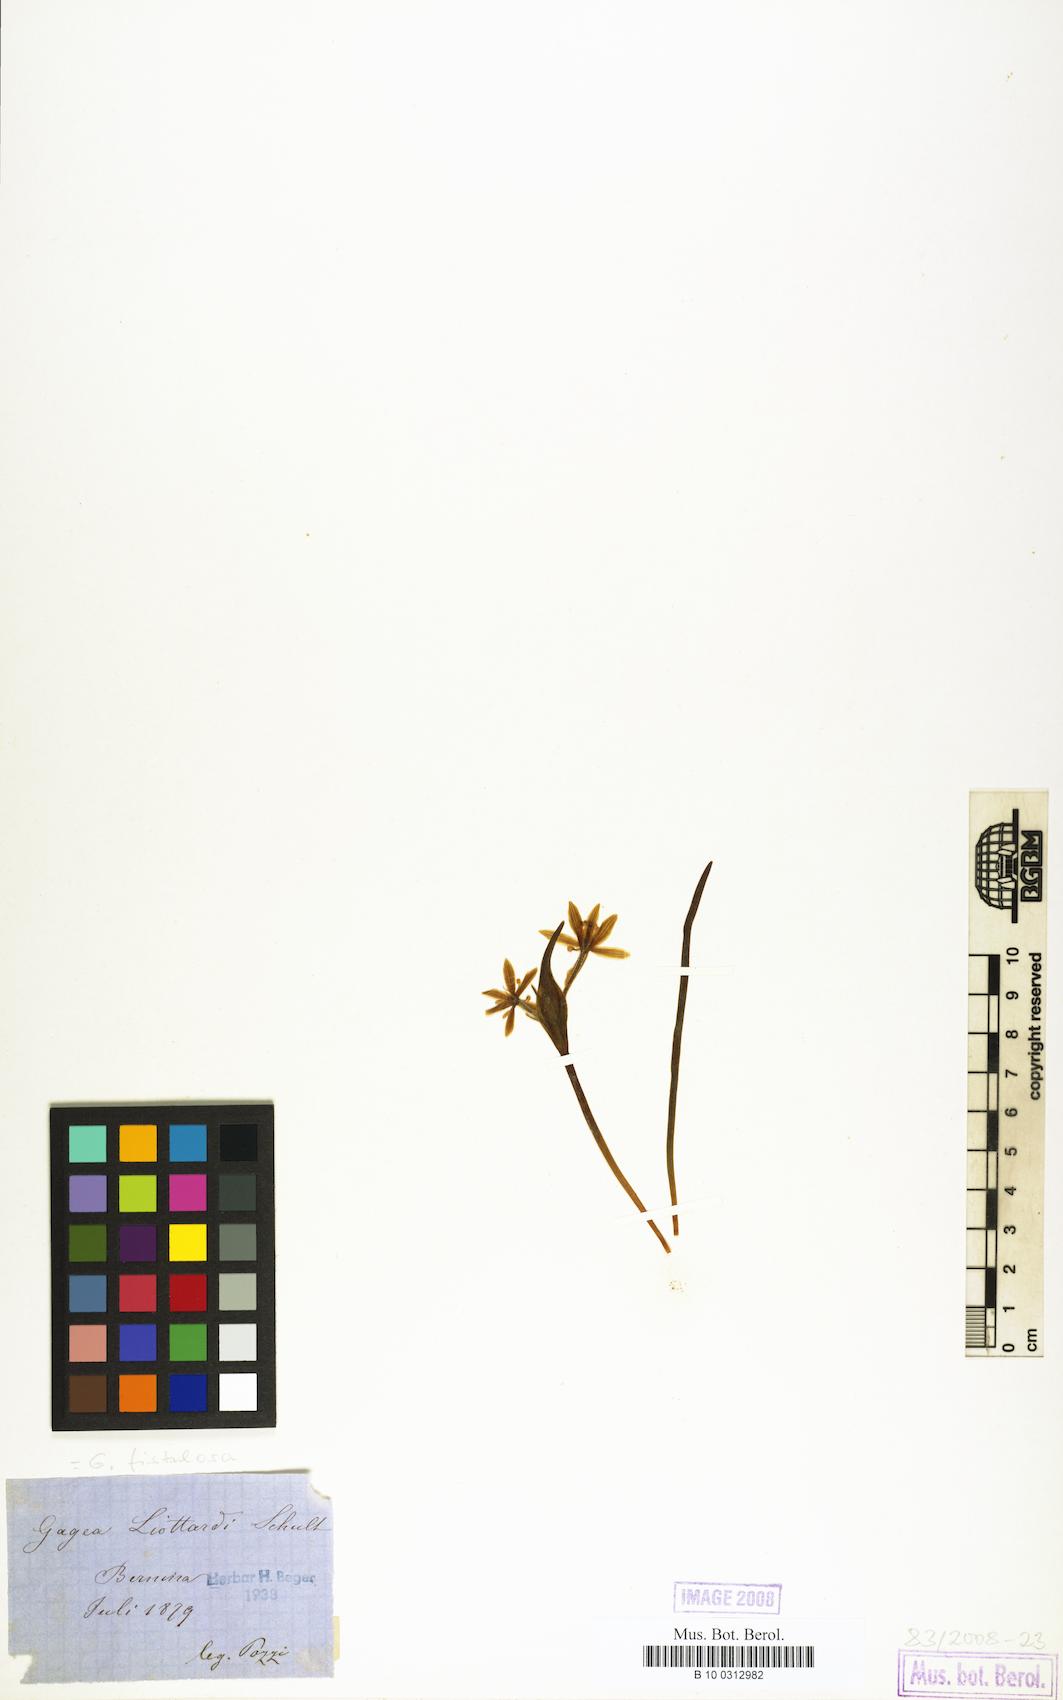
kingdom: Plantae
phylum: Tracheophyta
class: Liliopsida
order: Liliales
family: Liliaceae
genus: Gagea
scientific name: Gagea
